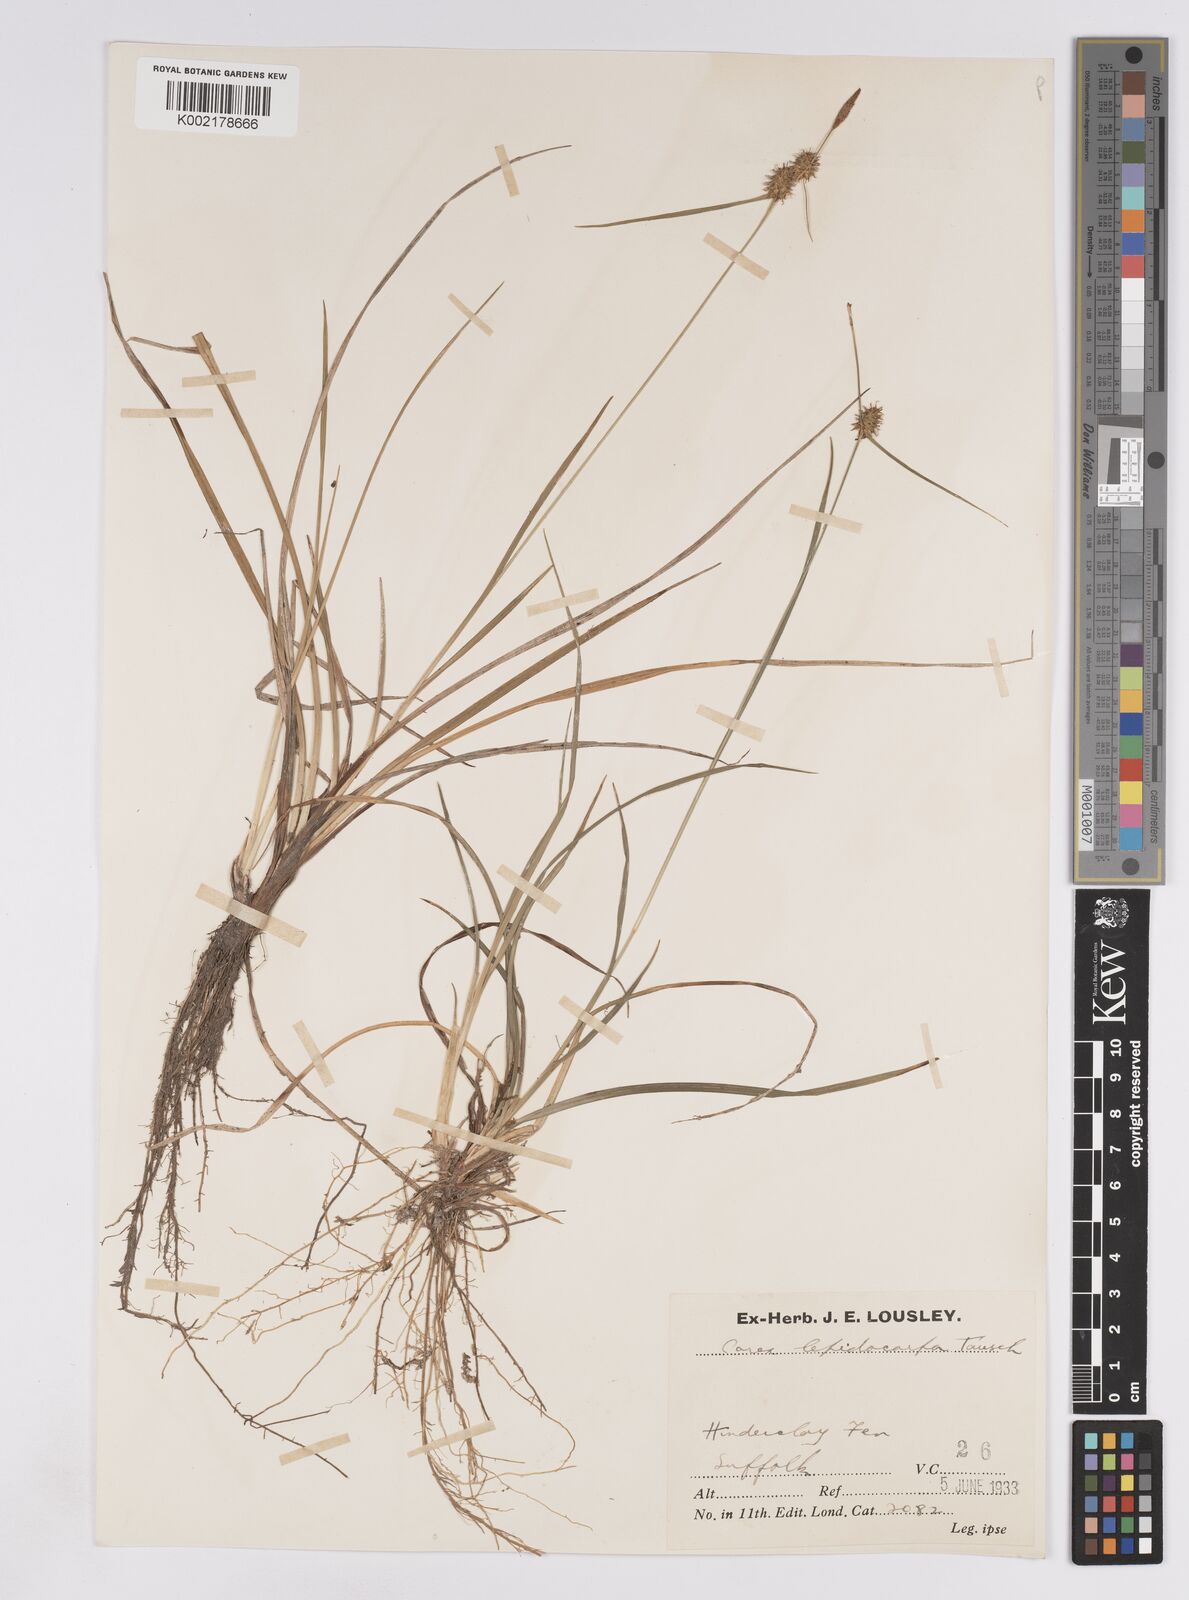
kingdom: Plantae
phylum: Tracheophyta
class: Liliopsida
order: Poales
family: Cyperaceae
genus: Carex
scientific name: Carex lepidocarpa
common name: Long-stalked yellow-sedge
